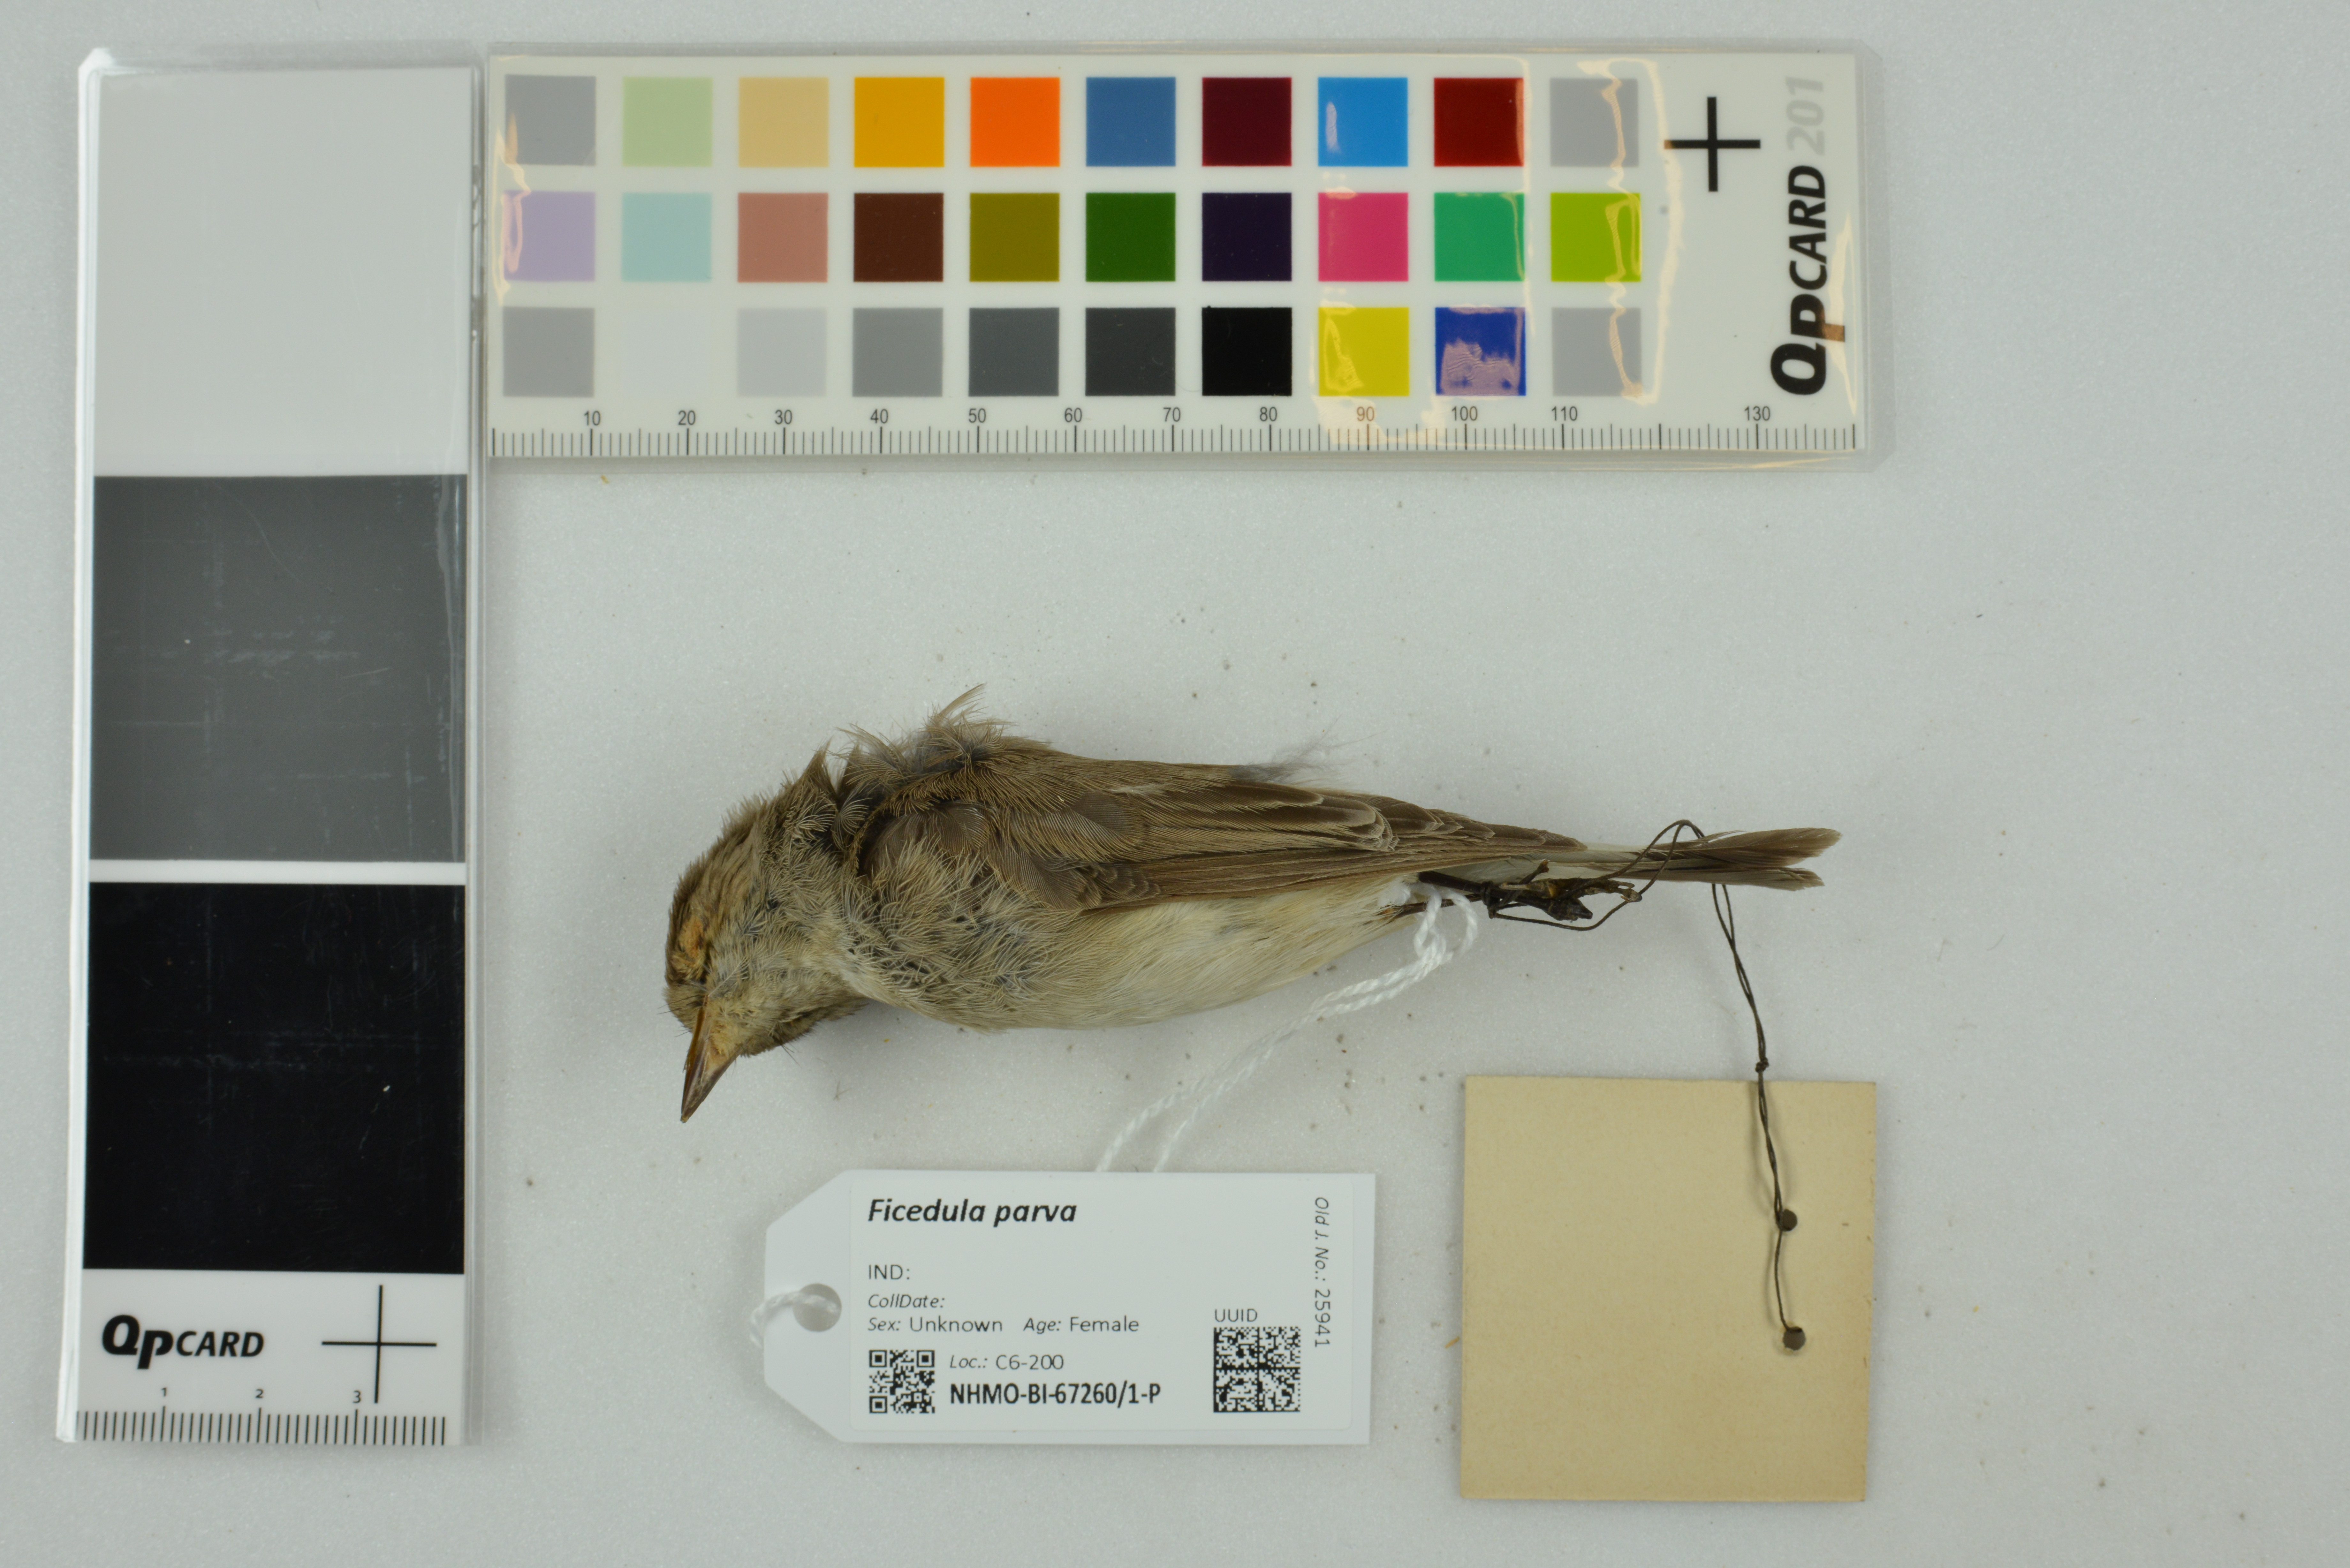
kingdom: Animalia
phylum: Chordata
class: Aves
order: Passeriformes
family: Muscicapidae
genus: Ficedula
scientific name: Ficedula parva
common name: Red-breasted flycatcher
